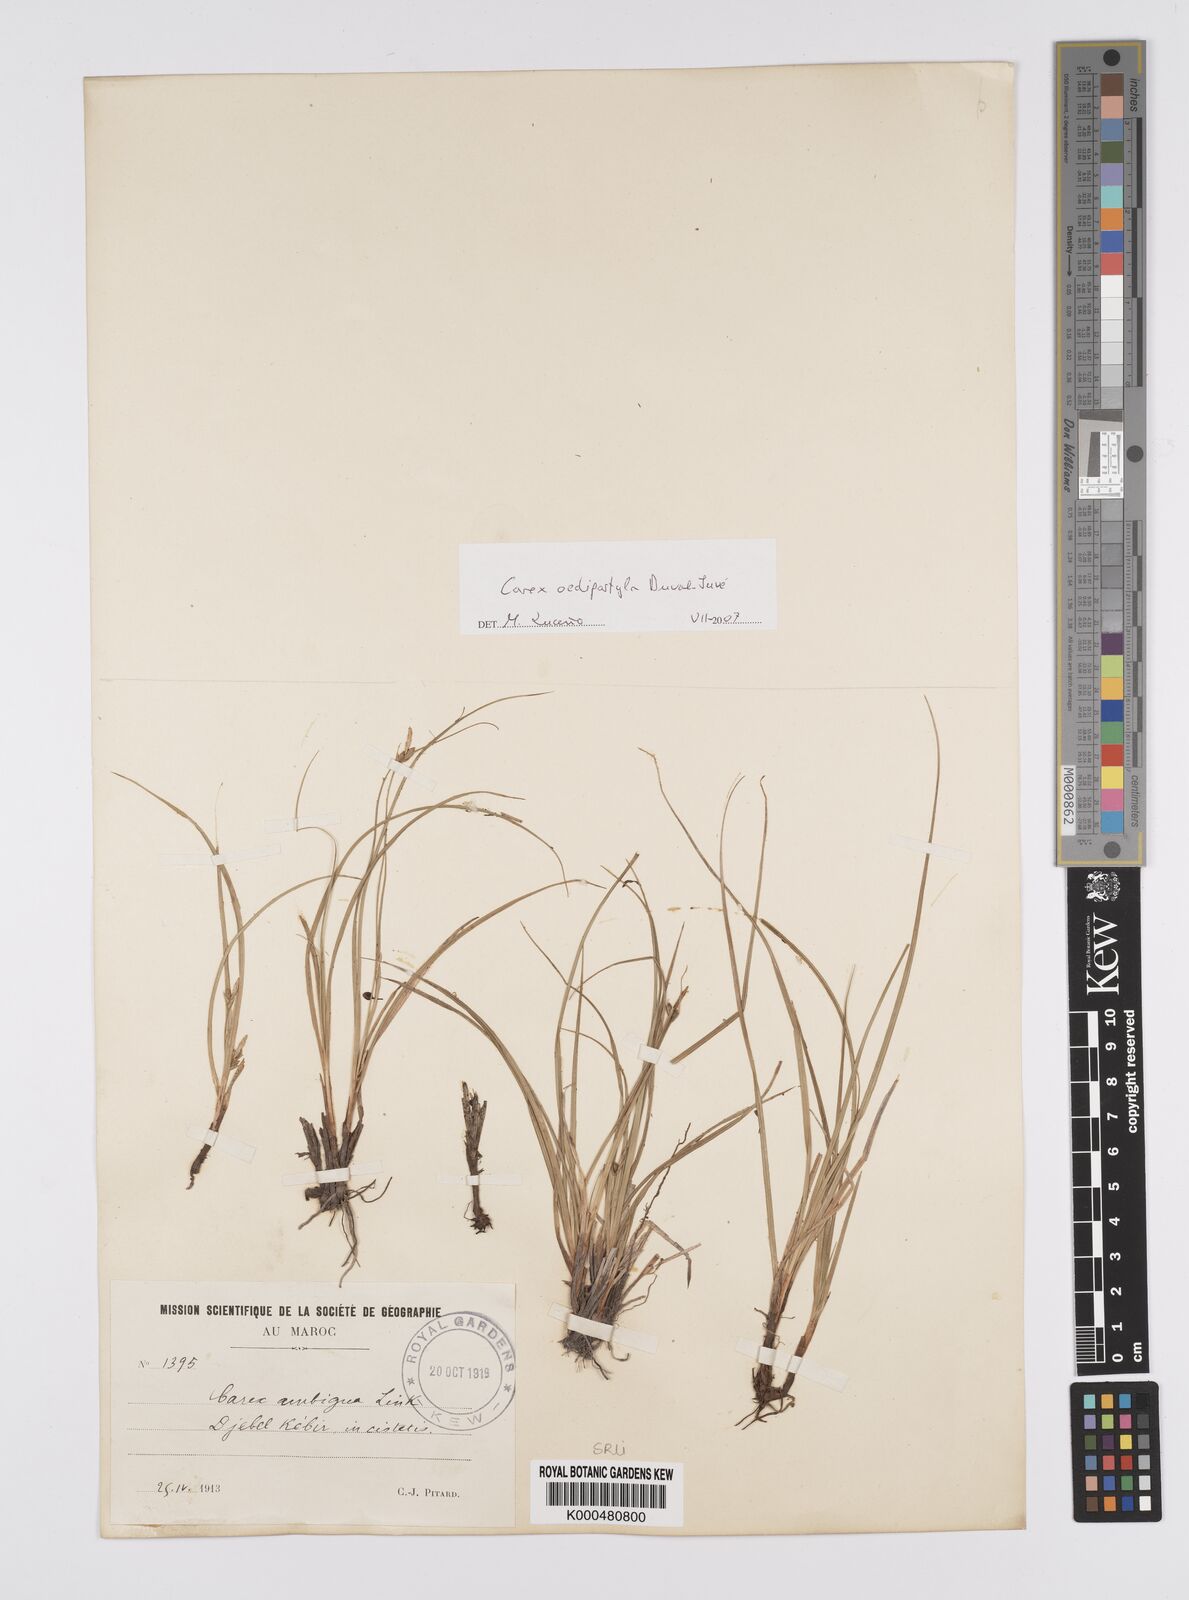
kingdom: Plantae
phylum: Tracheophyta
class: Liliopsida
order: Poales
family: Cyperaceae
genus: Carex
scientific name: Carex oedipostyla
